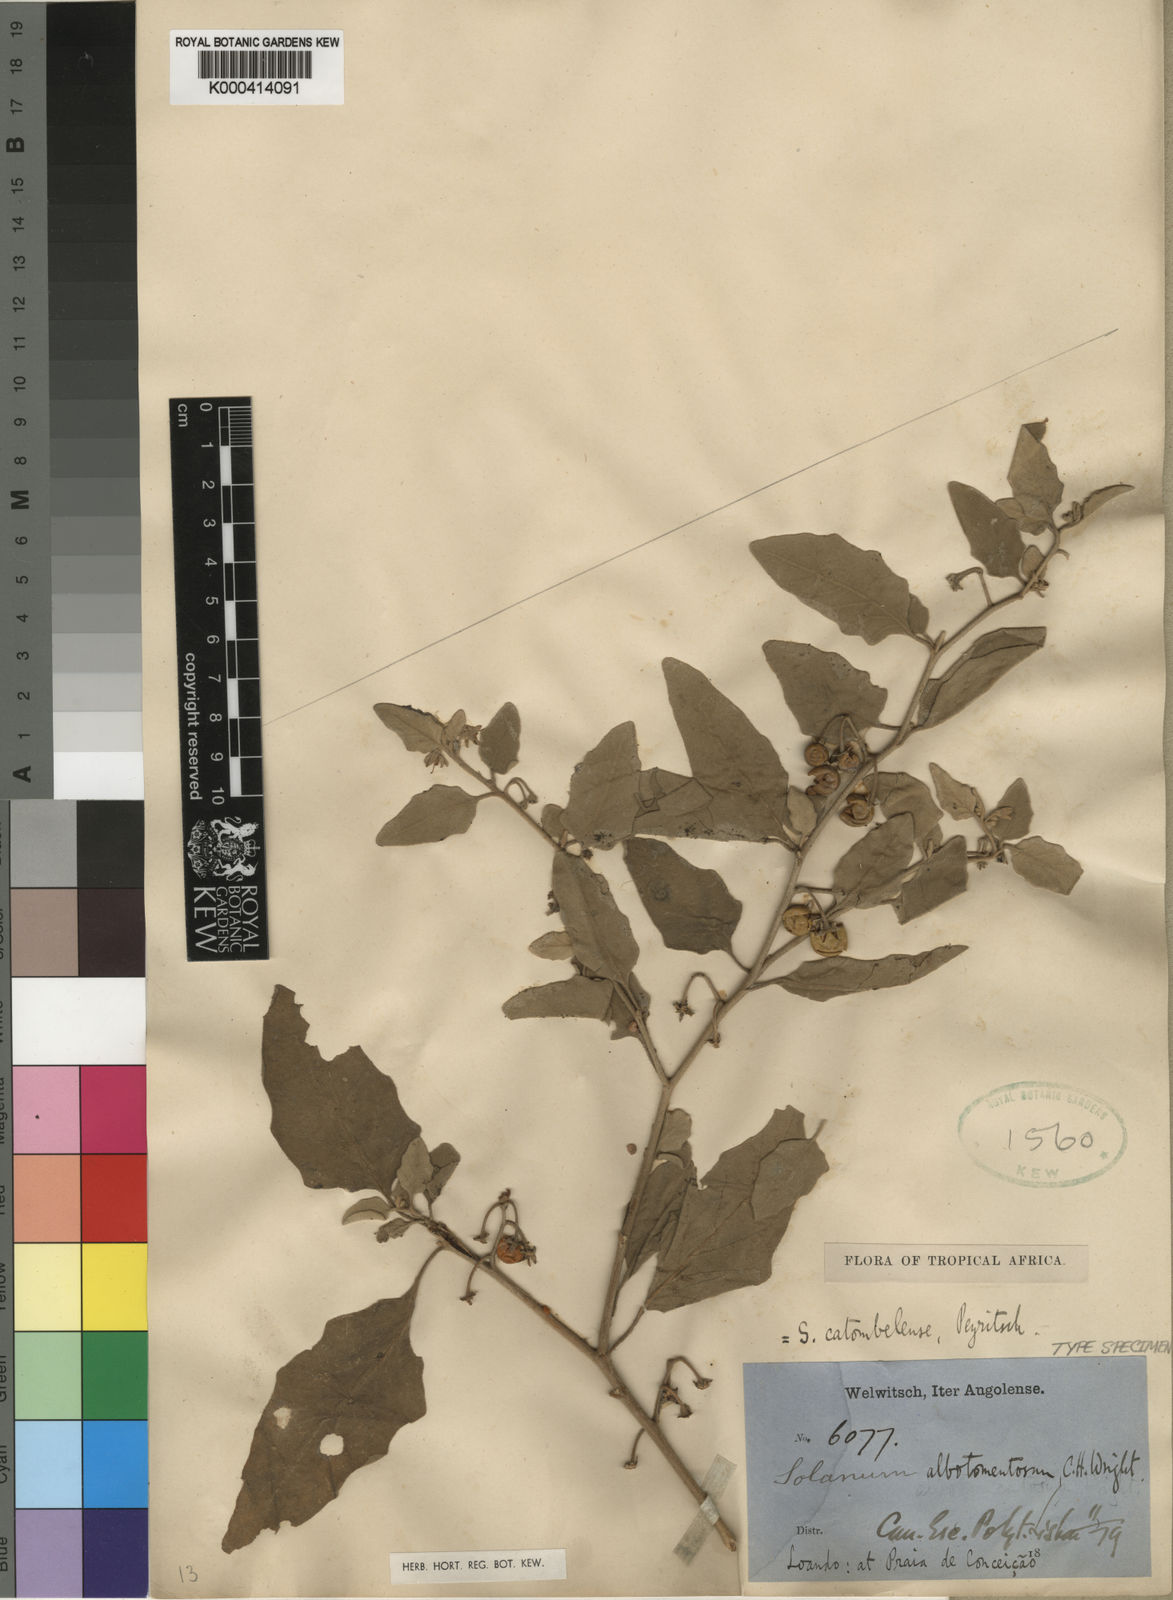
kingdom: Plantae
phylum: Tracheophyta
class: Magnoliopsida
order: Solanales
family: Solanaceae
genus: Solanum
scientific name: Solanum catombelense
